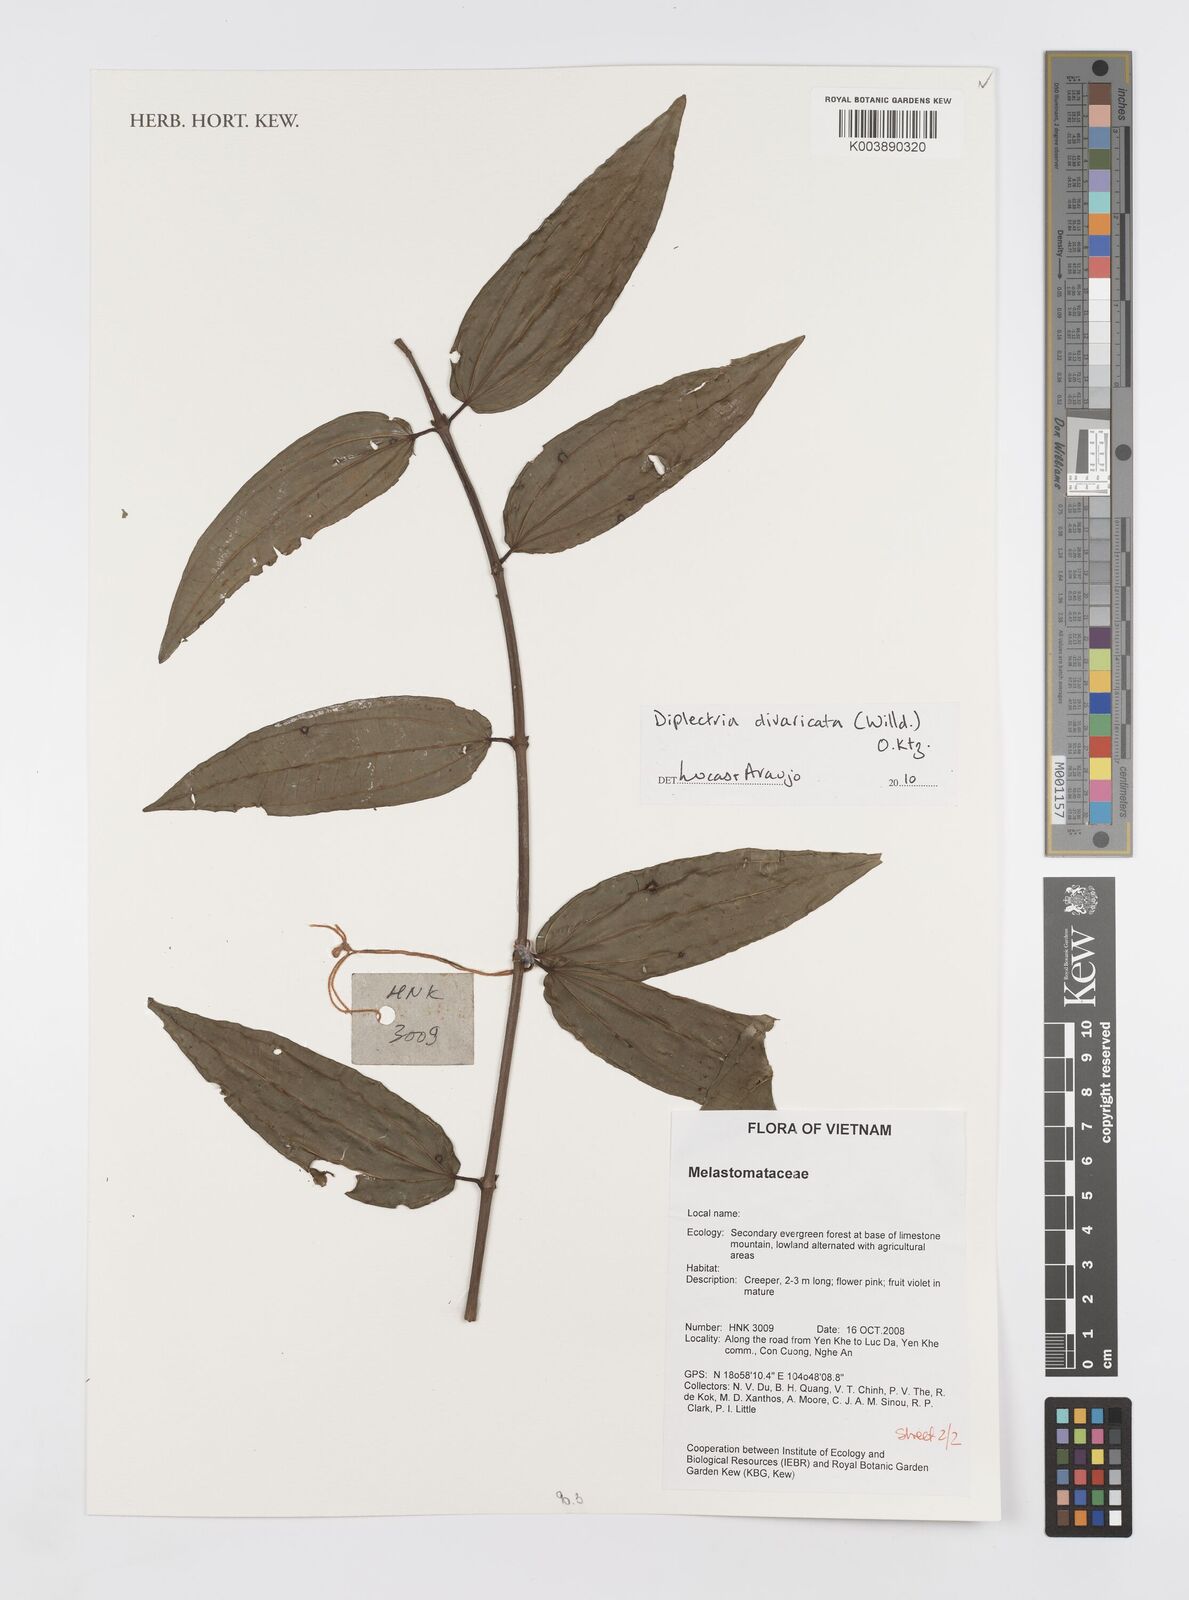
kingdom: Plantae
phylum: Tracheophyta
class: Magnoliopsida
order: Myrtales
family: Melastomataceae
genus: Diplectria
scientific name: Diplectria divaricata
